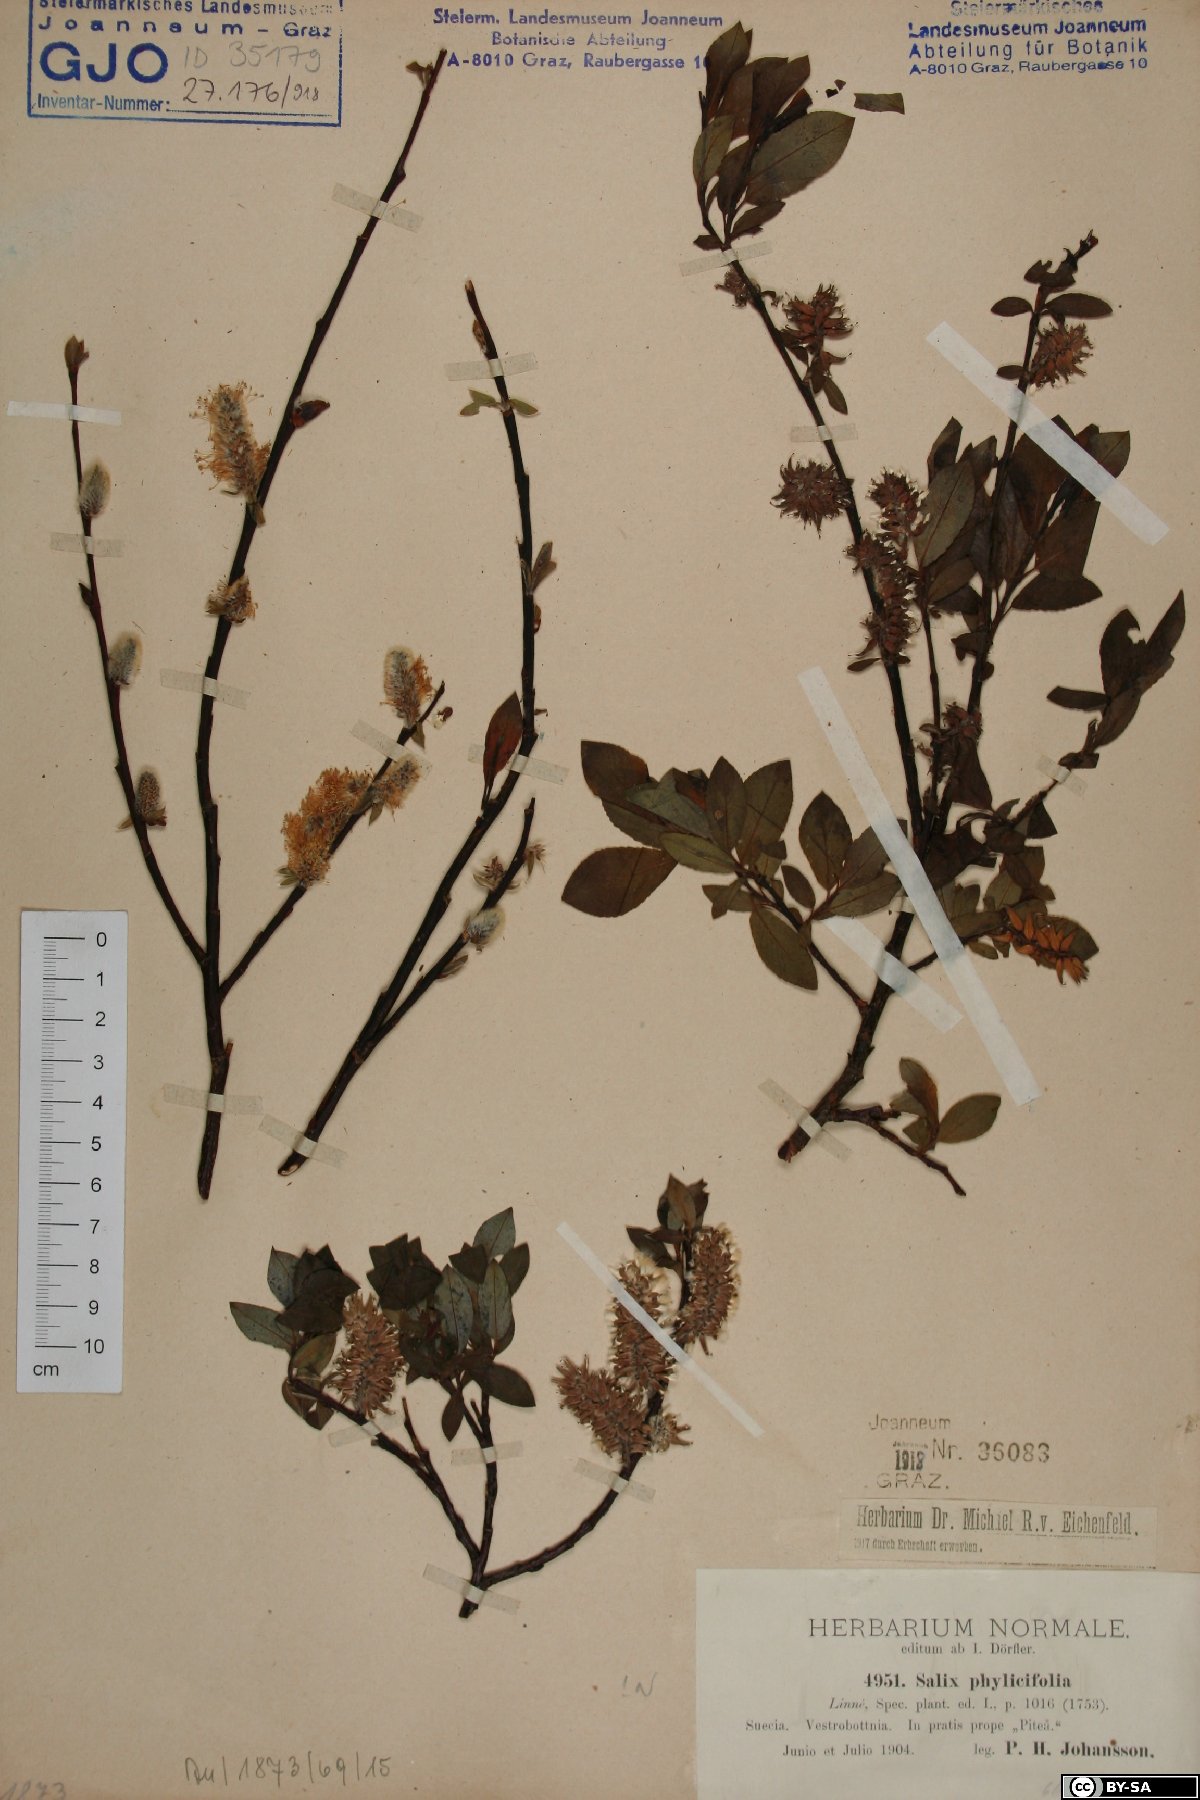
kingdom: Plantae
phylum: Tracheophyta
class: Magnoliopsida
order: Malpighiales
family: Salicaceae
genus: Salix
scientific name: Salix phylicifolia
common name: Tea-leaved willow
